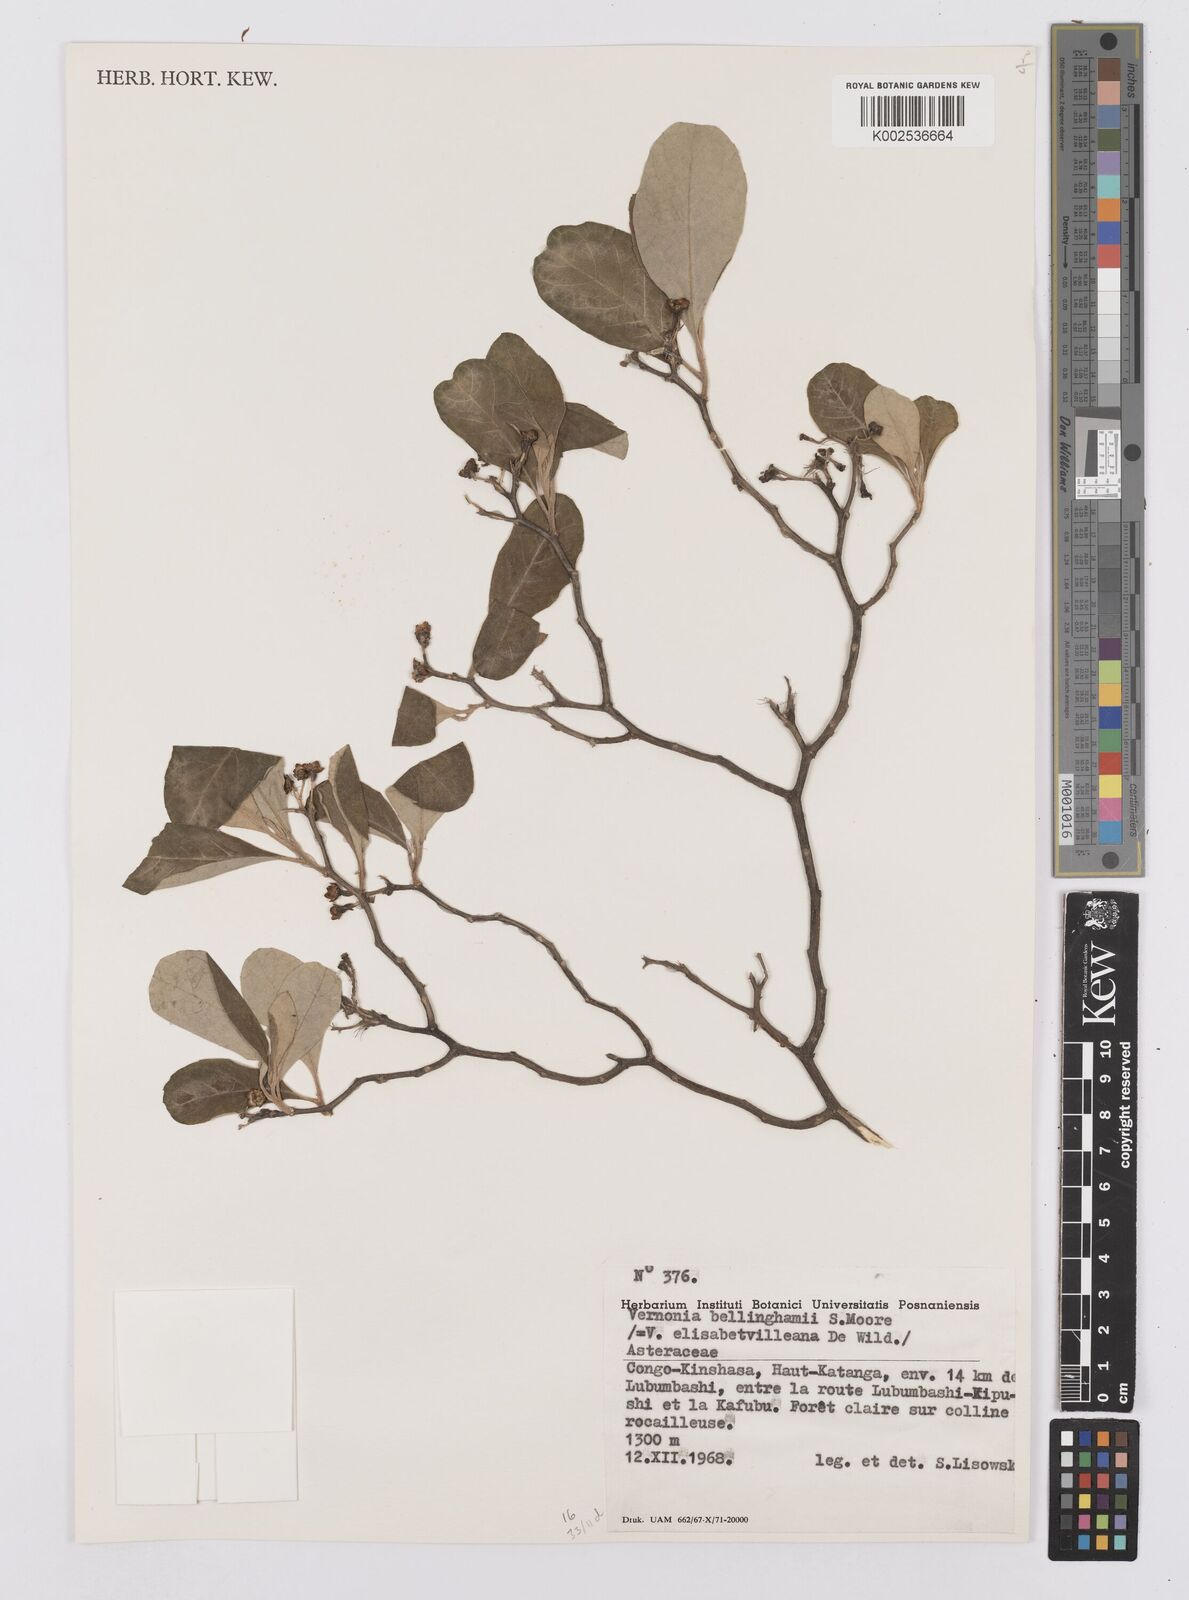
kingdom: Plantae
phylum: Tracheophyta
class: Magnoliopsida
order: Asterales
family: Asteraceae
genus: Gymnanthemum
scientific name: Gymnanthemum bellinghamii
